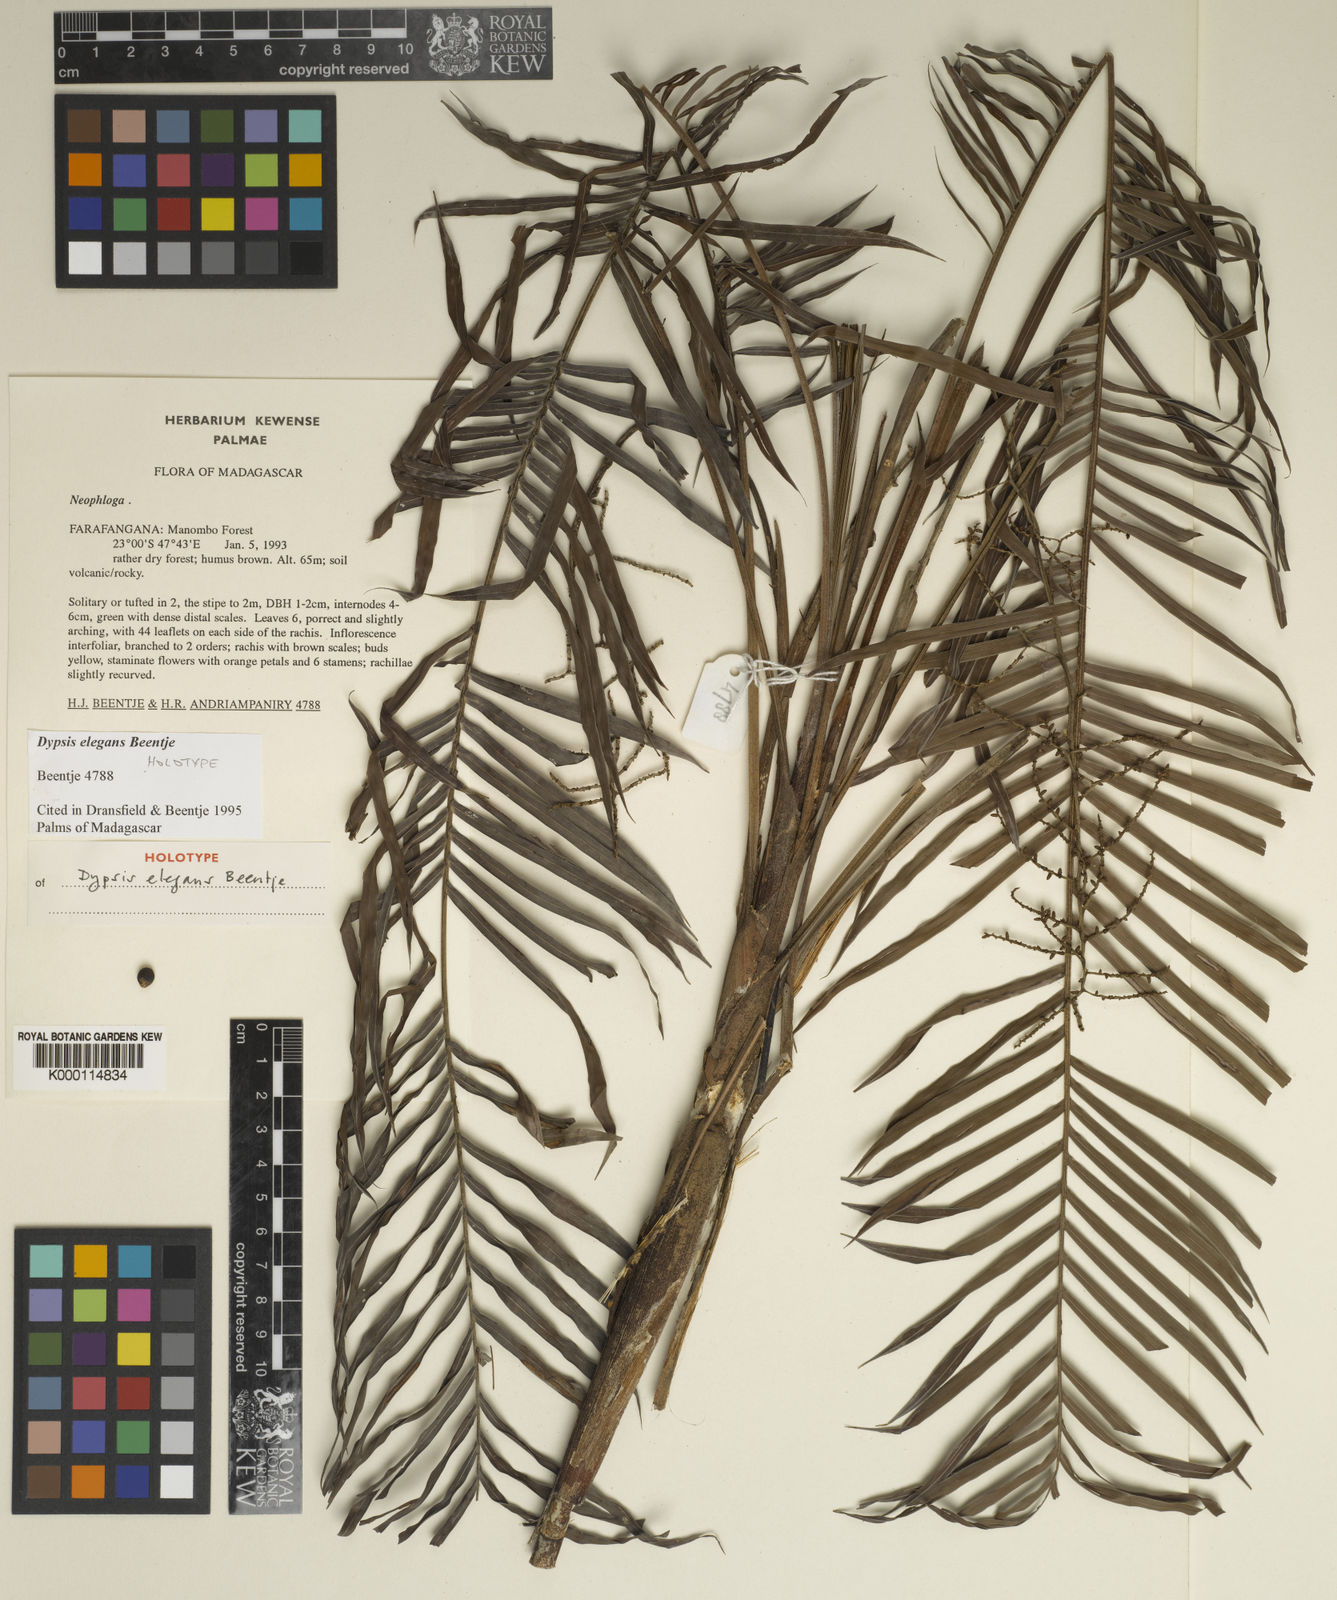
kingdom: Plantae
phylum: Tracheophyta
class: Liliopsida
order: Arecales
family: Arecaceae
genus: Dypsis
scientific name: Dypsis elegans
